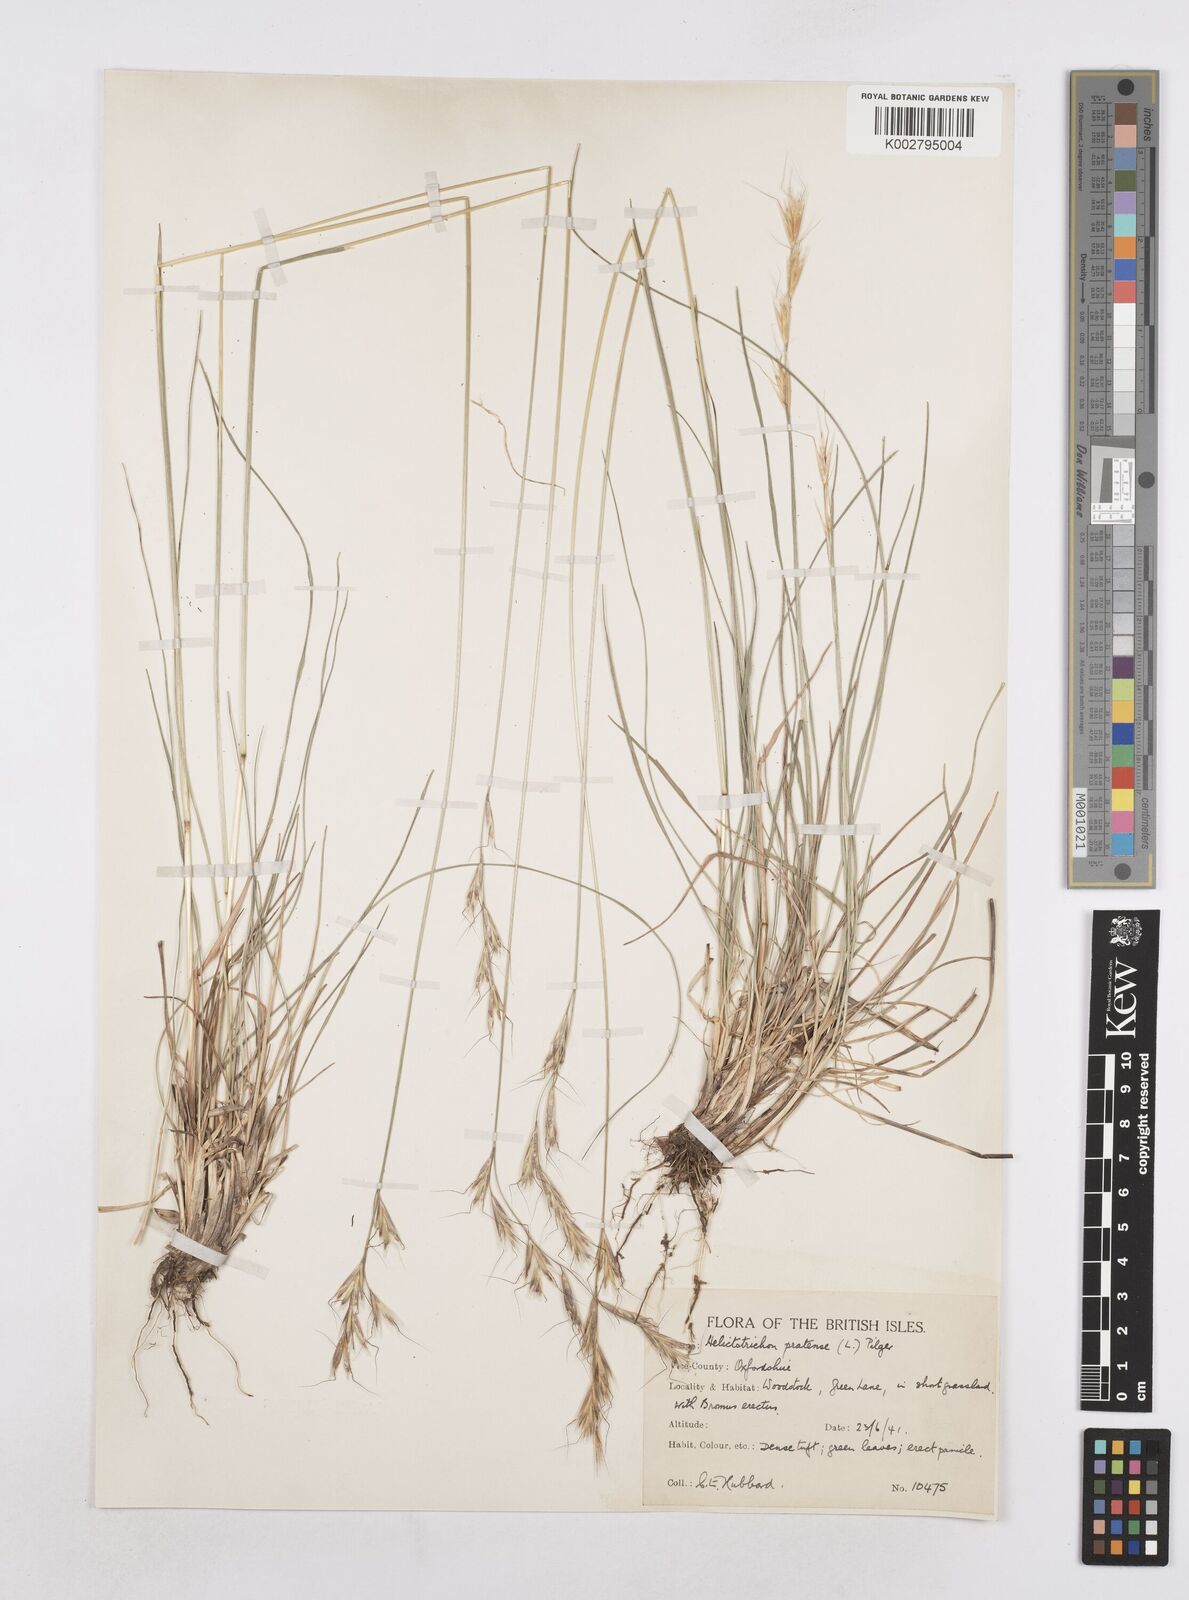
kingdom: Plantae
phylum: Tracheophyta
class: Liliopsida
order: Poales
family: Poaceae
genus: Helictochloa
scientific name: Helictochloa pratensis
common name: Meadow oat grass
